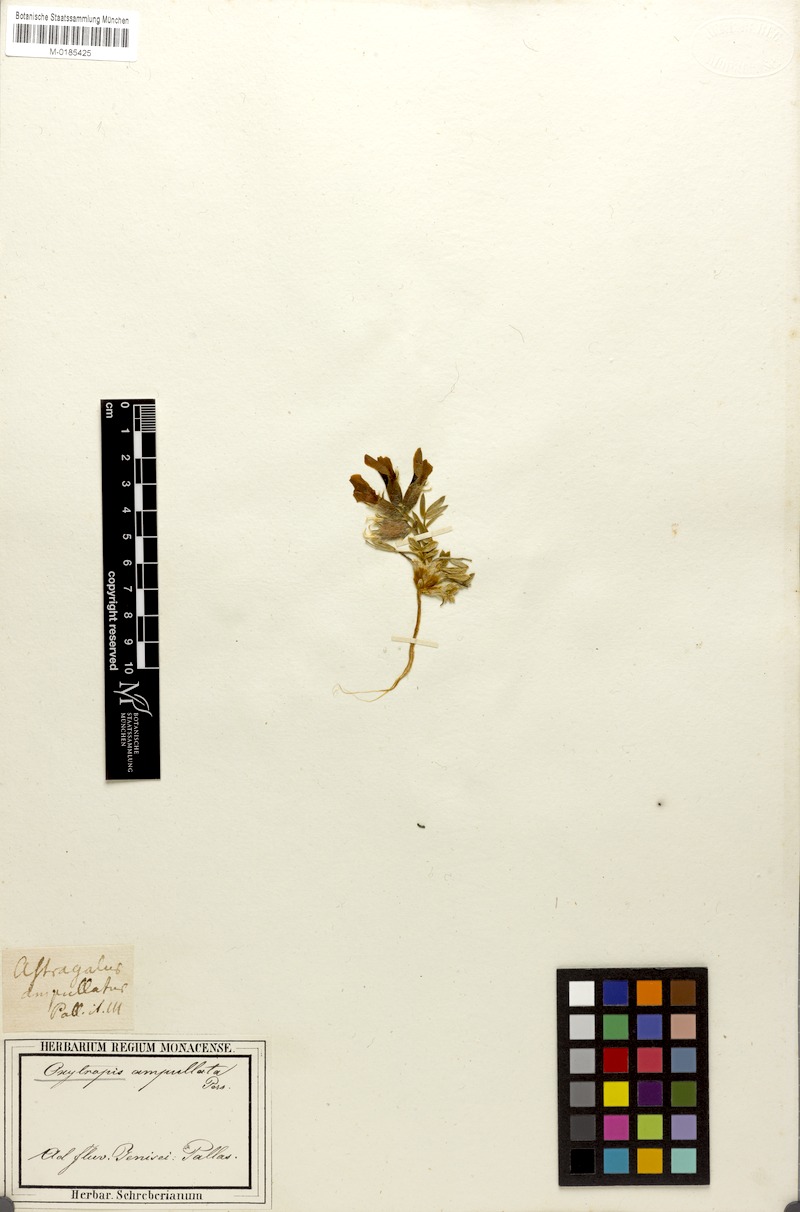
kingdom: Plantae
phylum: Tracheophyta
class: Magnoliopsida
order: Fabales
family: Fabaceae
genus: Oxytropis
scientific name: Oxytropis ampullata
